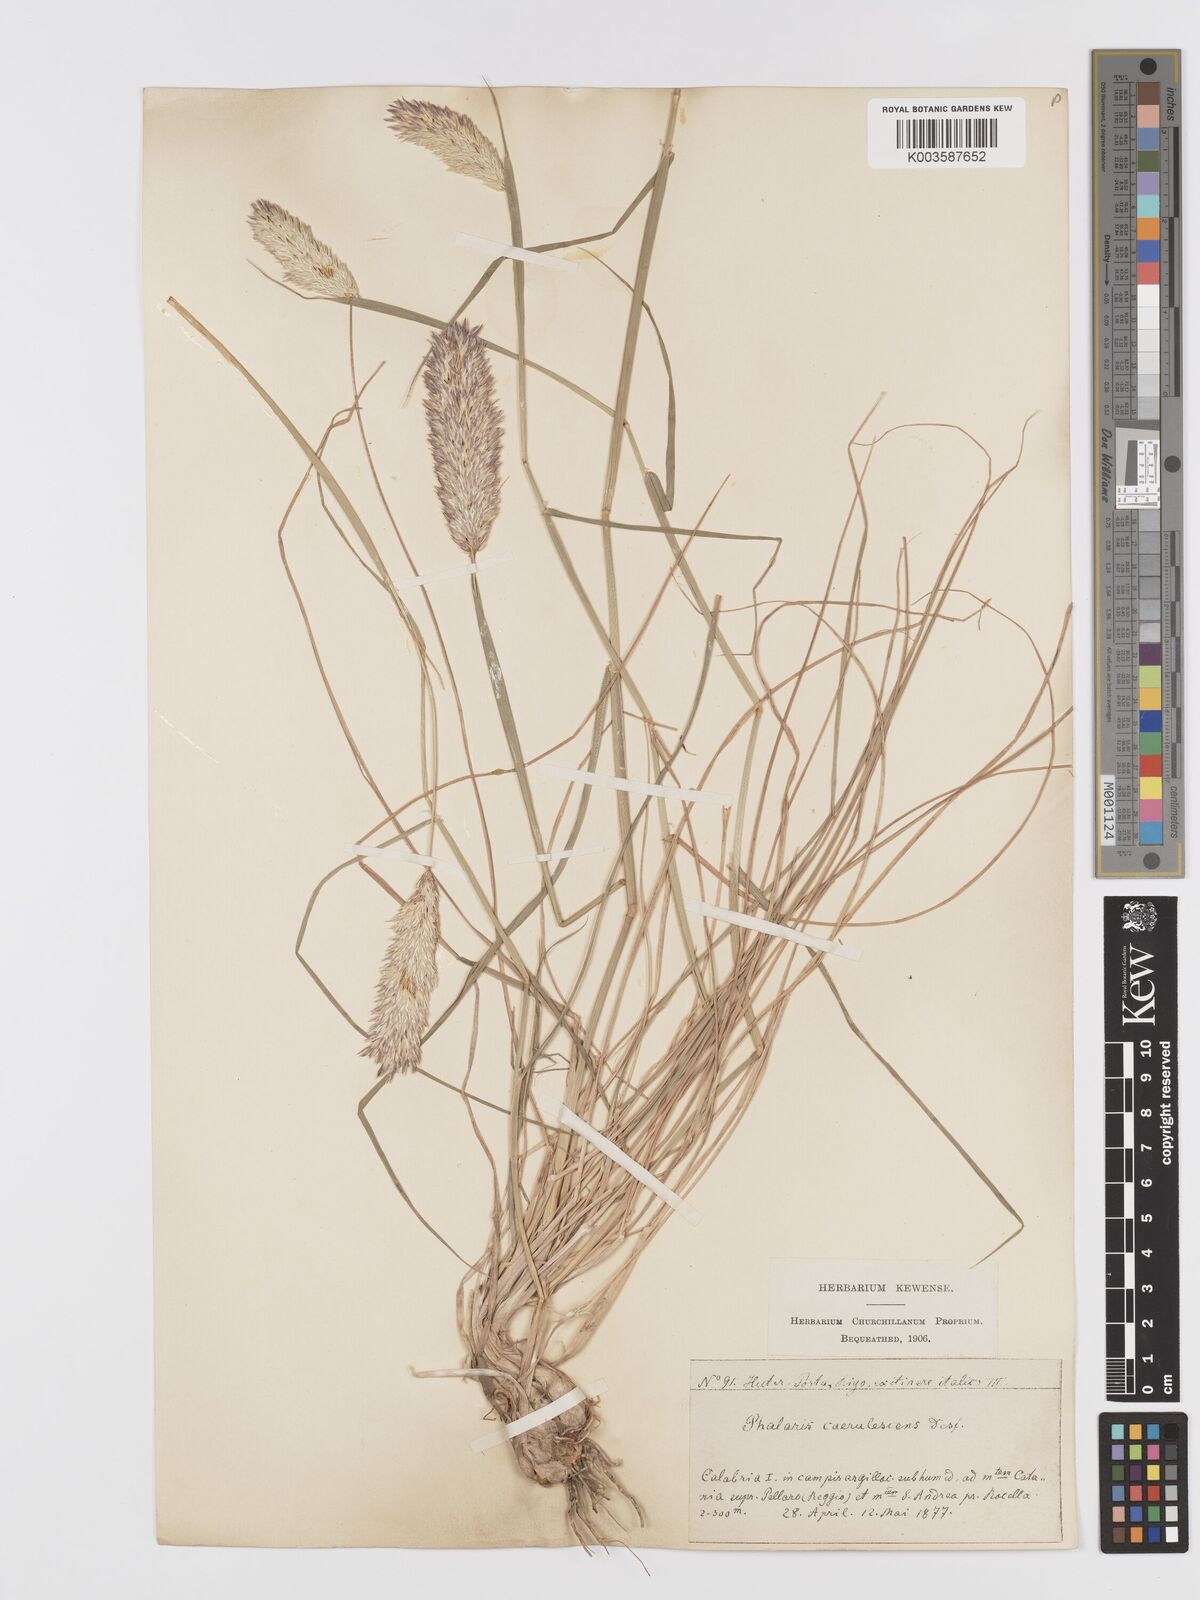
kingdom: Plantae
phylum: Tracheophyta
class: Liliopsida
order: Poales
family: Poaceae
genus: Phalaris
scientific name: Phalaris coerulescens
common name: Sunolgrass
